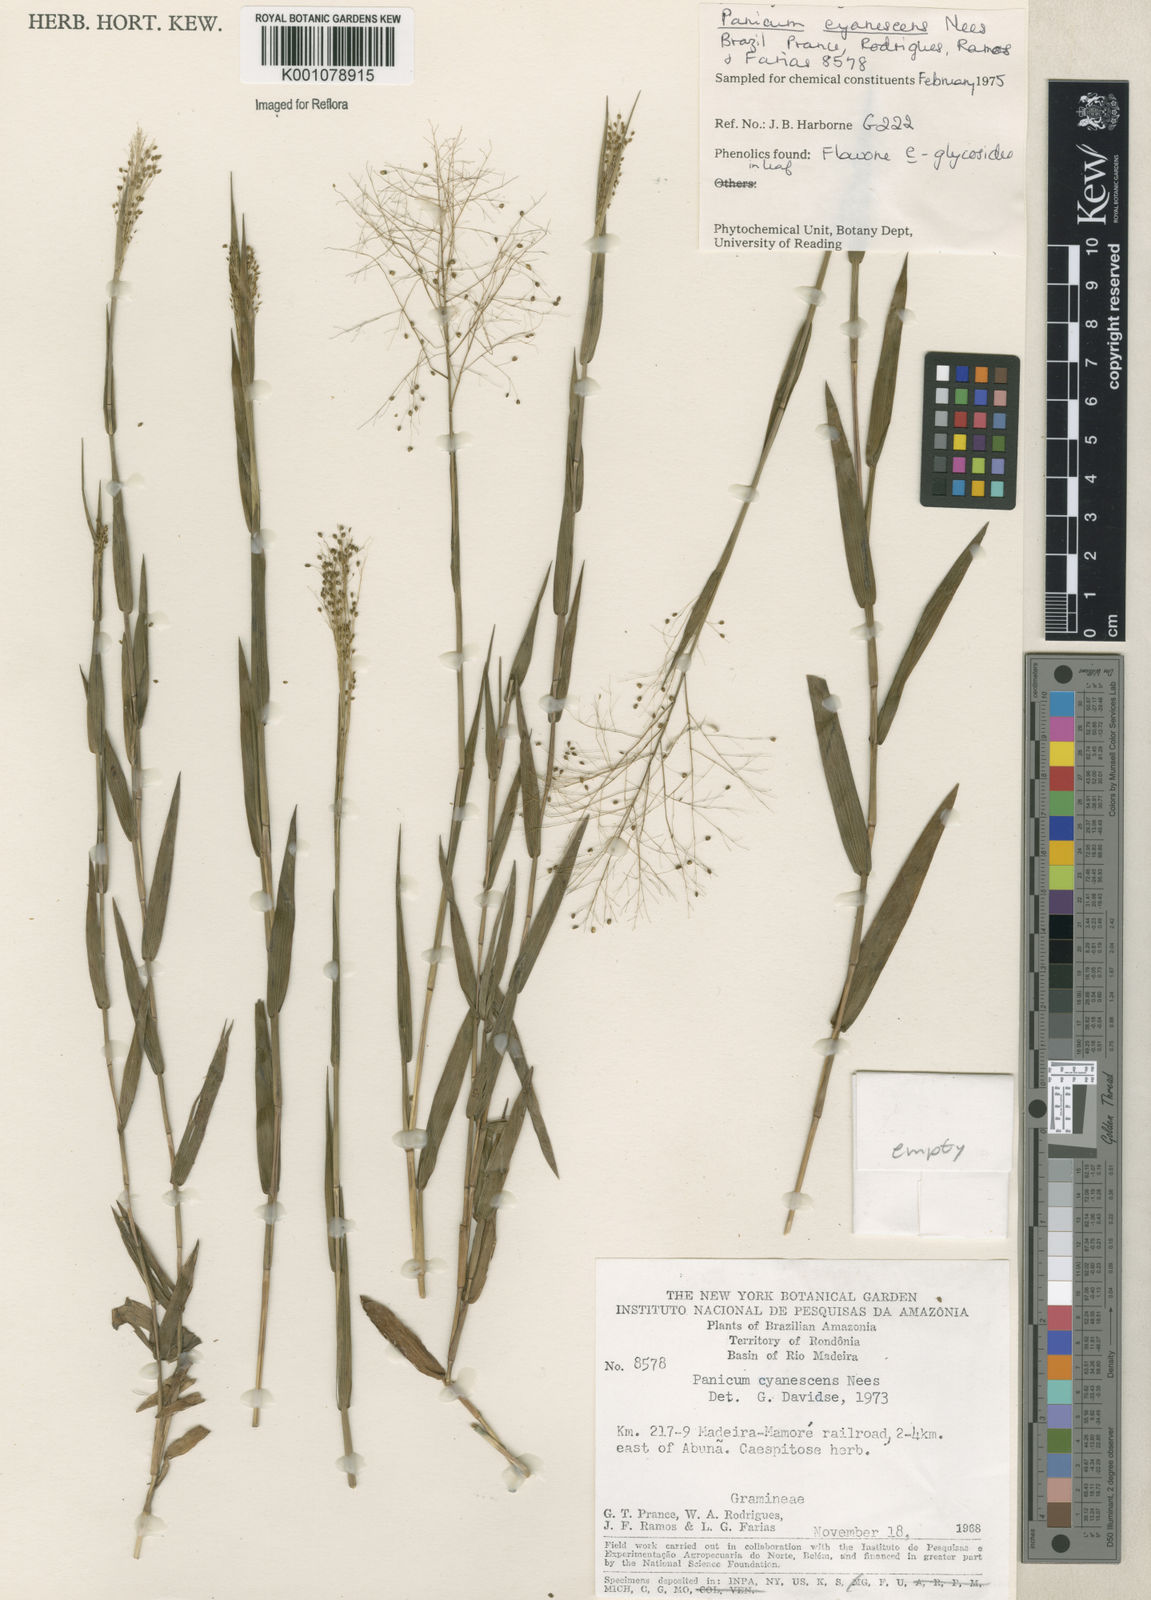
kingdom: Plantae
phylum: Tracheophyta
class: Liliopsida
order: Poales
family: Poaceae
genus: Trichanthecium
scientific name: Trichanthecium cyanescens
